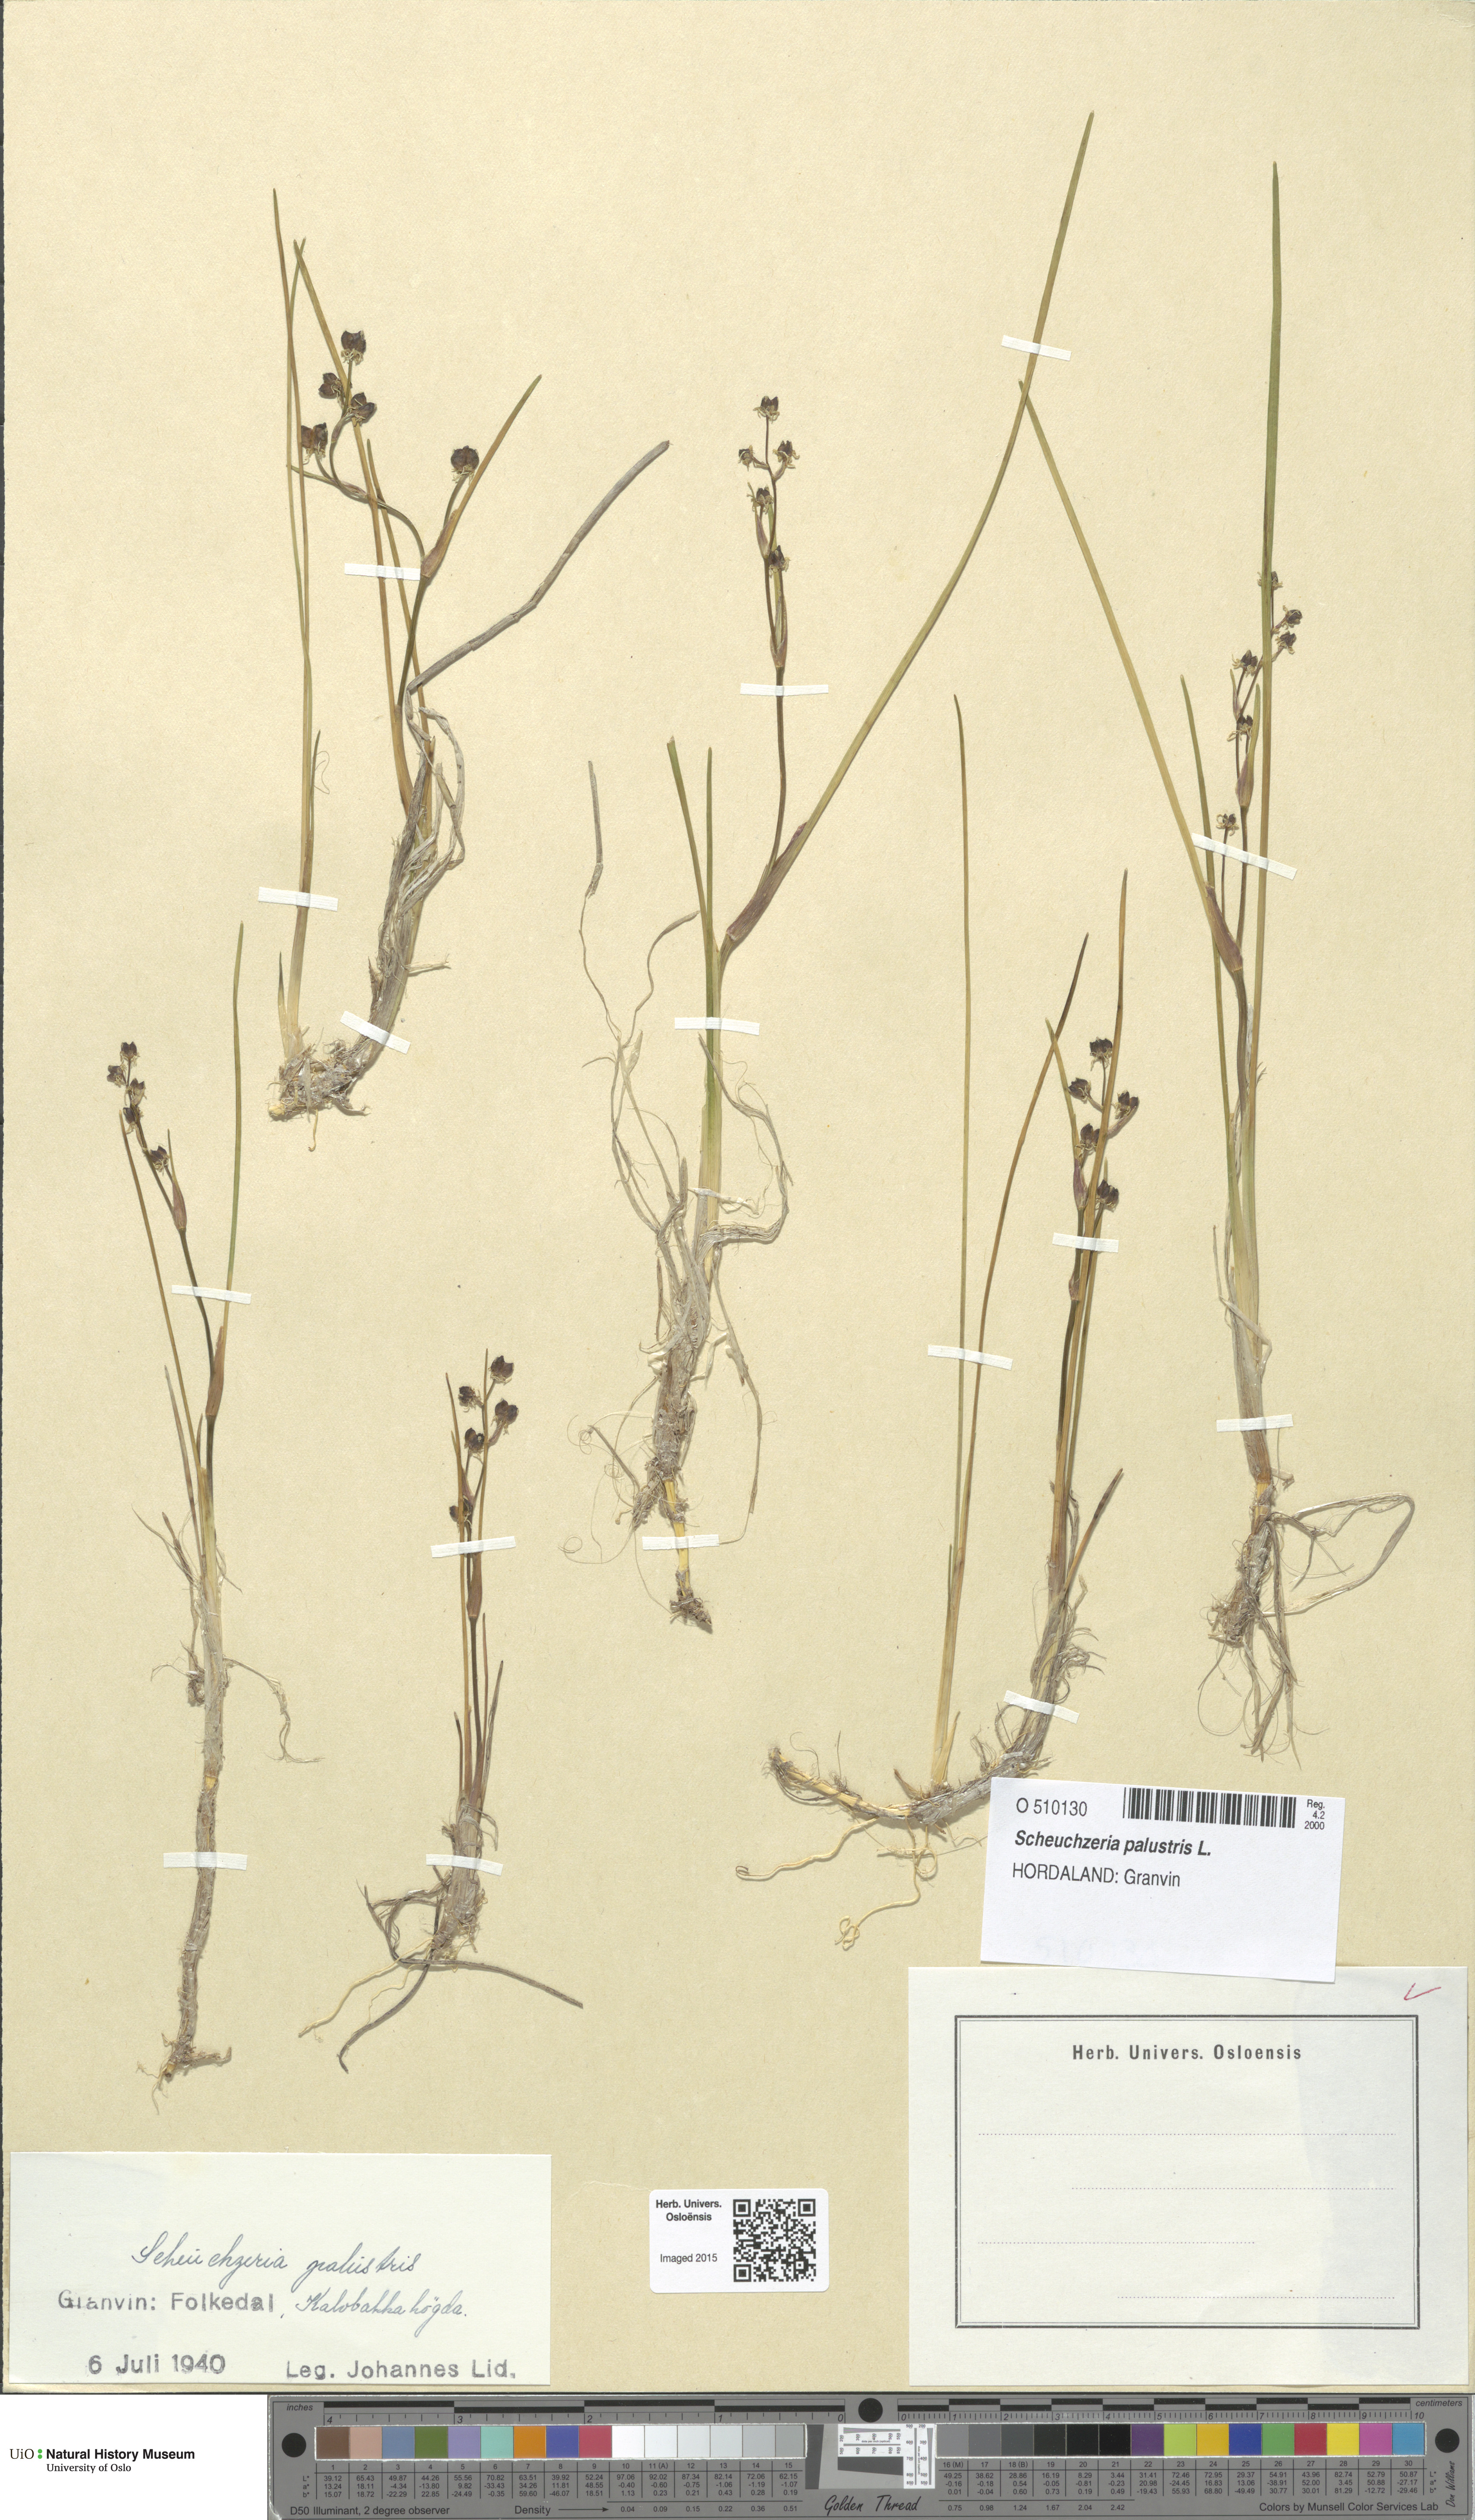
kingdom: Plantae
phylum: Tracheophyta
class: Liliopsida
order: Alismatales
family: Scheuchzeriaceae
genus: Scheuchzeria
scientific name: Scheuchzeria palustris
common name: Rannoch-rush
